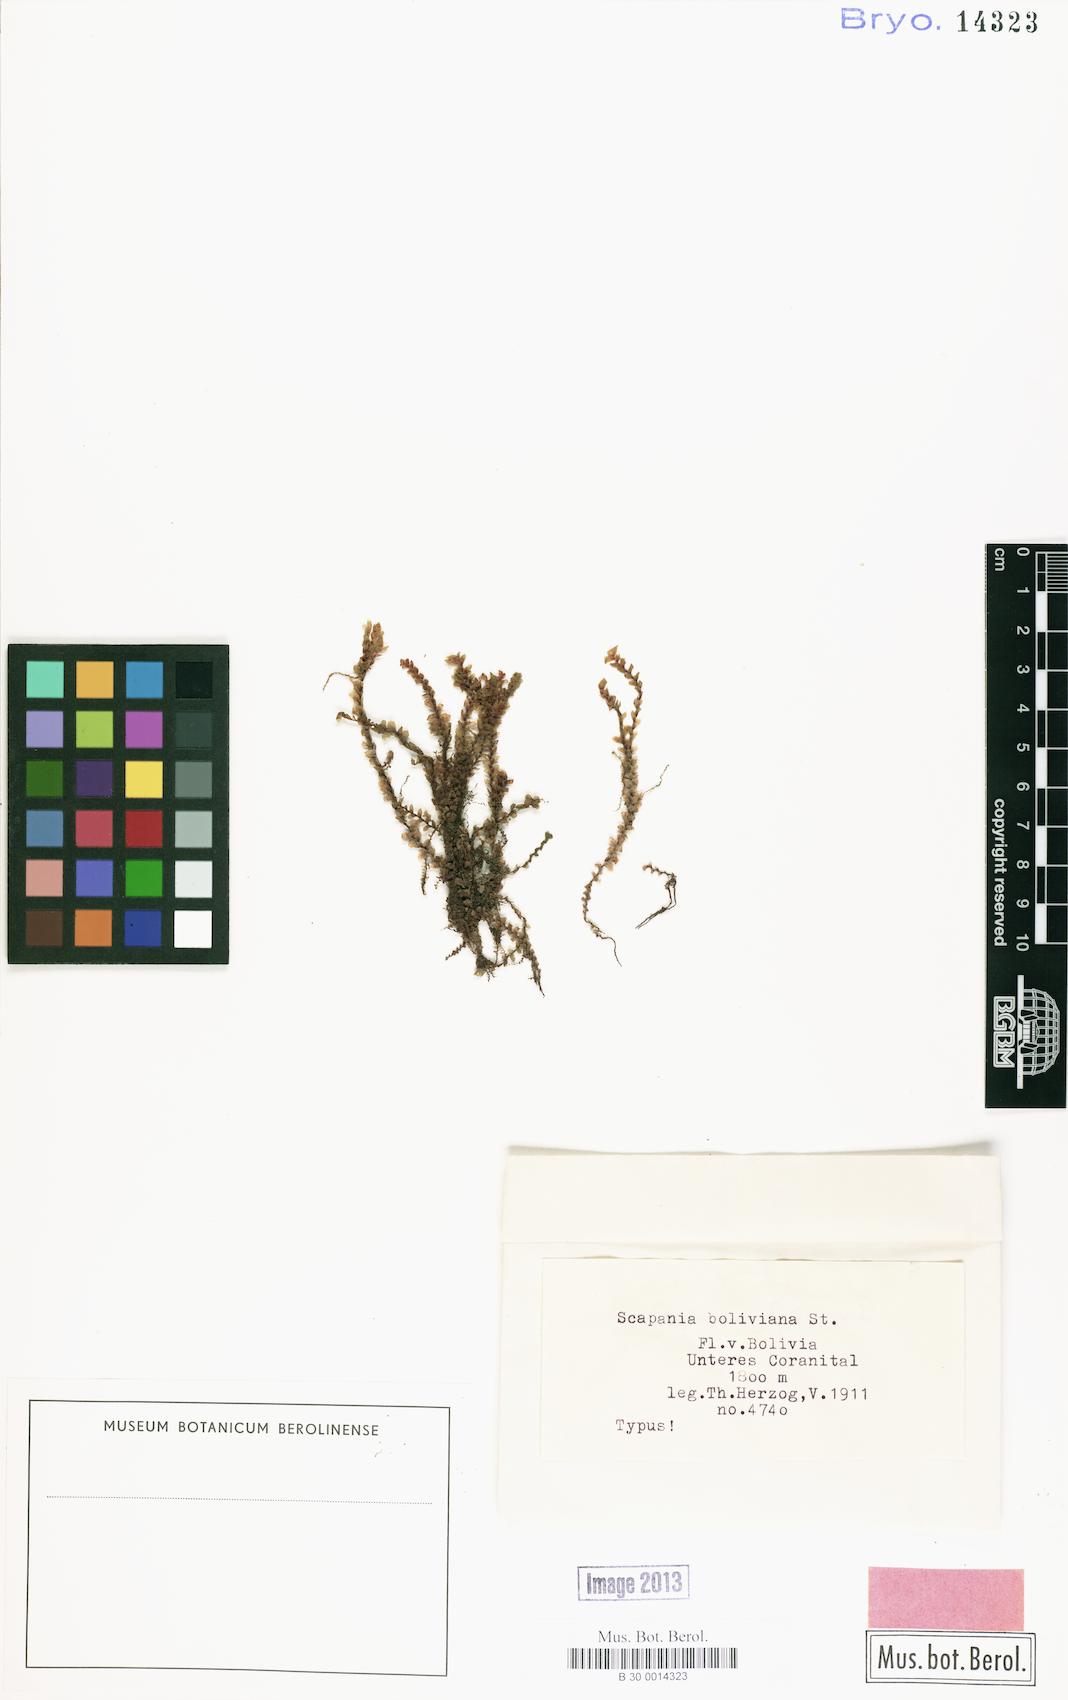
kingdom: Plantae
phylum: Marchantiophyta
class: Jungermanniopsida
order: Jungermanniales
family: Scapaniaceae
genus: Scapania
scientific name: Scapania
